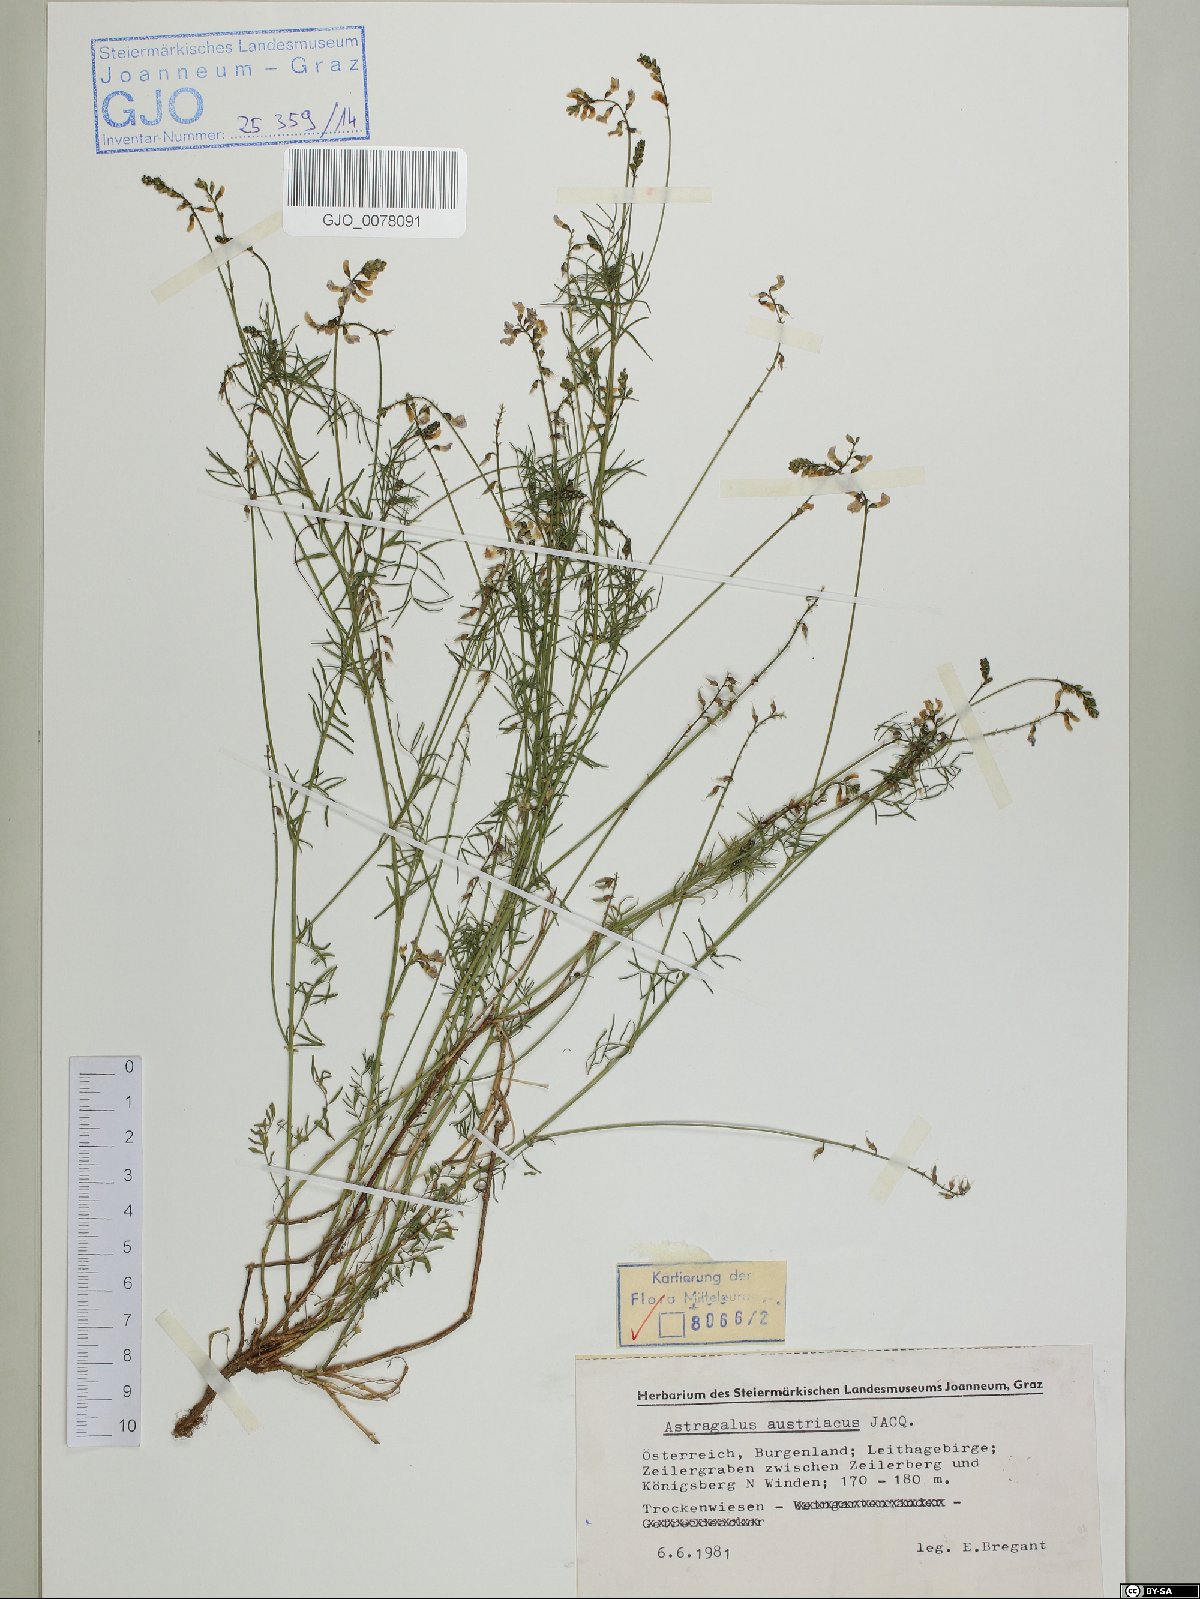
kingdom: Plantae
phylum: Tracheophyta
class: Magnoliopsida
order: Fabales
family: Fabaceae
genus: Astragalus
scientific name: Astragalus austriacus
